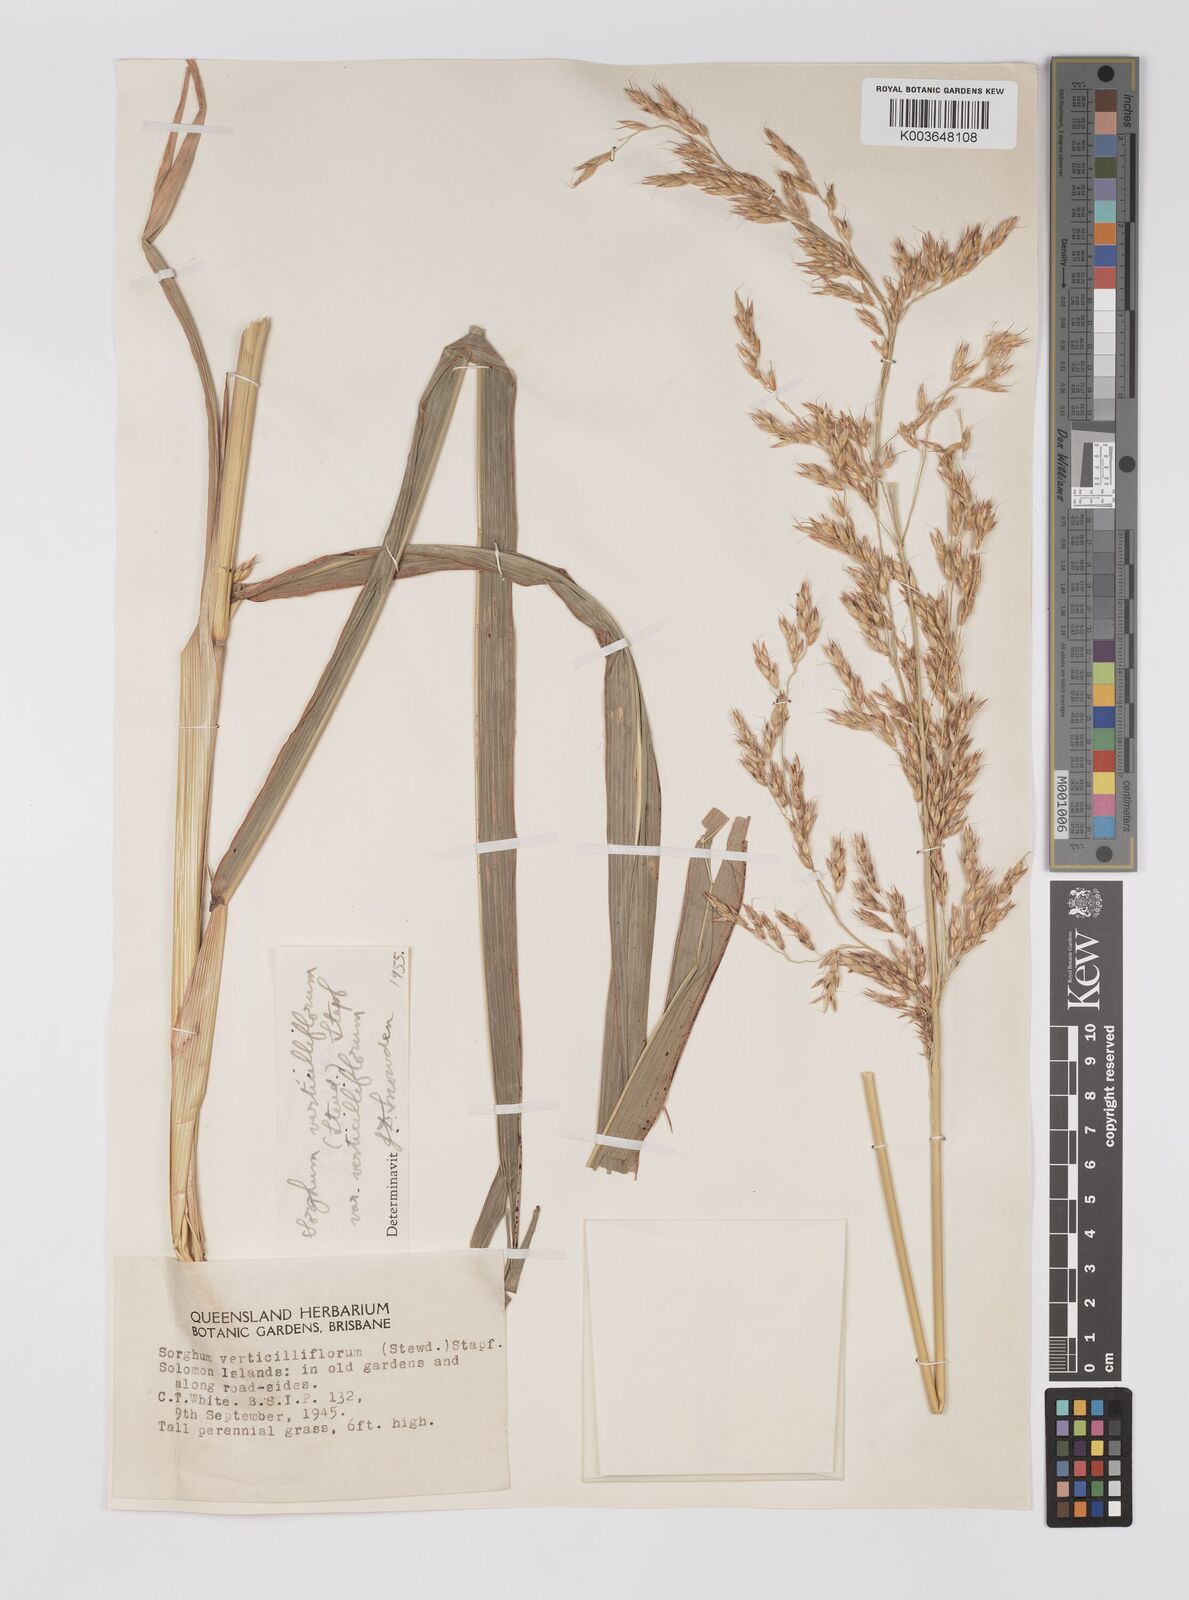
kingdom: Plantae
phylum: Tracheophyta
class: Liliopsida
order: Poales
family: Poaceae
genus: Sorghum
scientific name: Sorghum arundinaceum
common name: Sorghum
